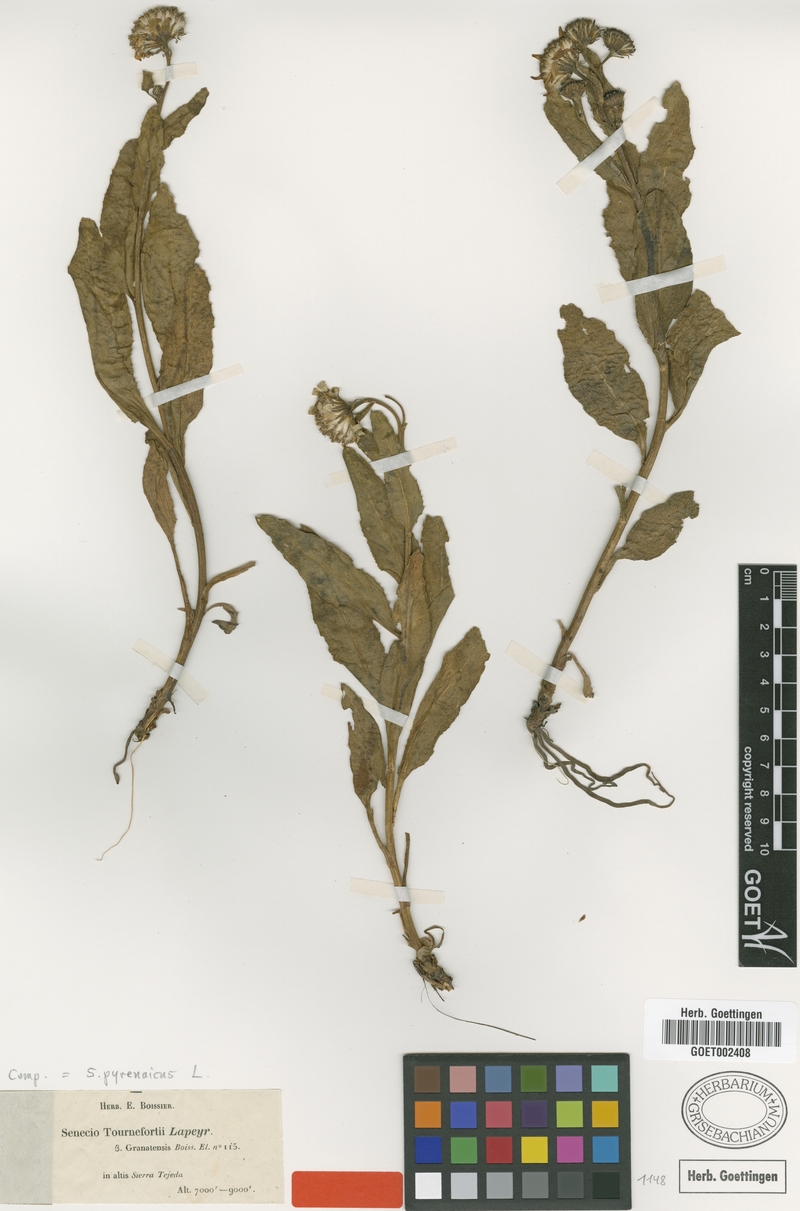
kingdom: Plantae
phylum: Tracheophyta
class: Magnoliopsida
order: Asterales
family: Asteraceae
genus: Senecio
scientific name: Senecio pyrenaicus
